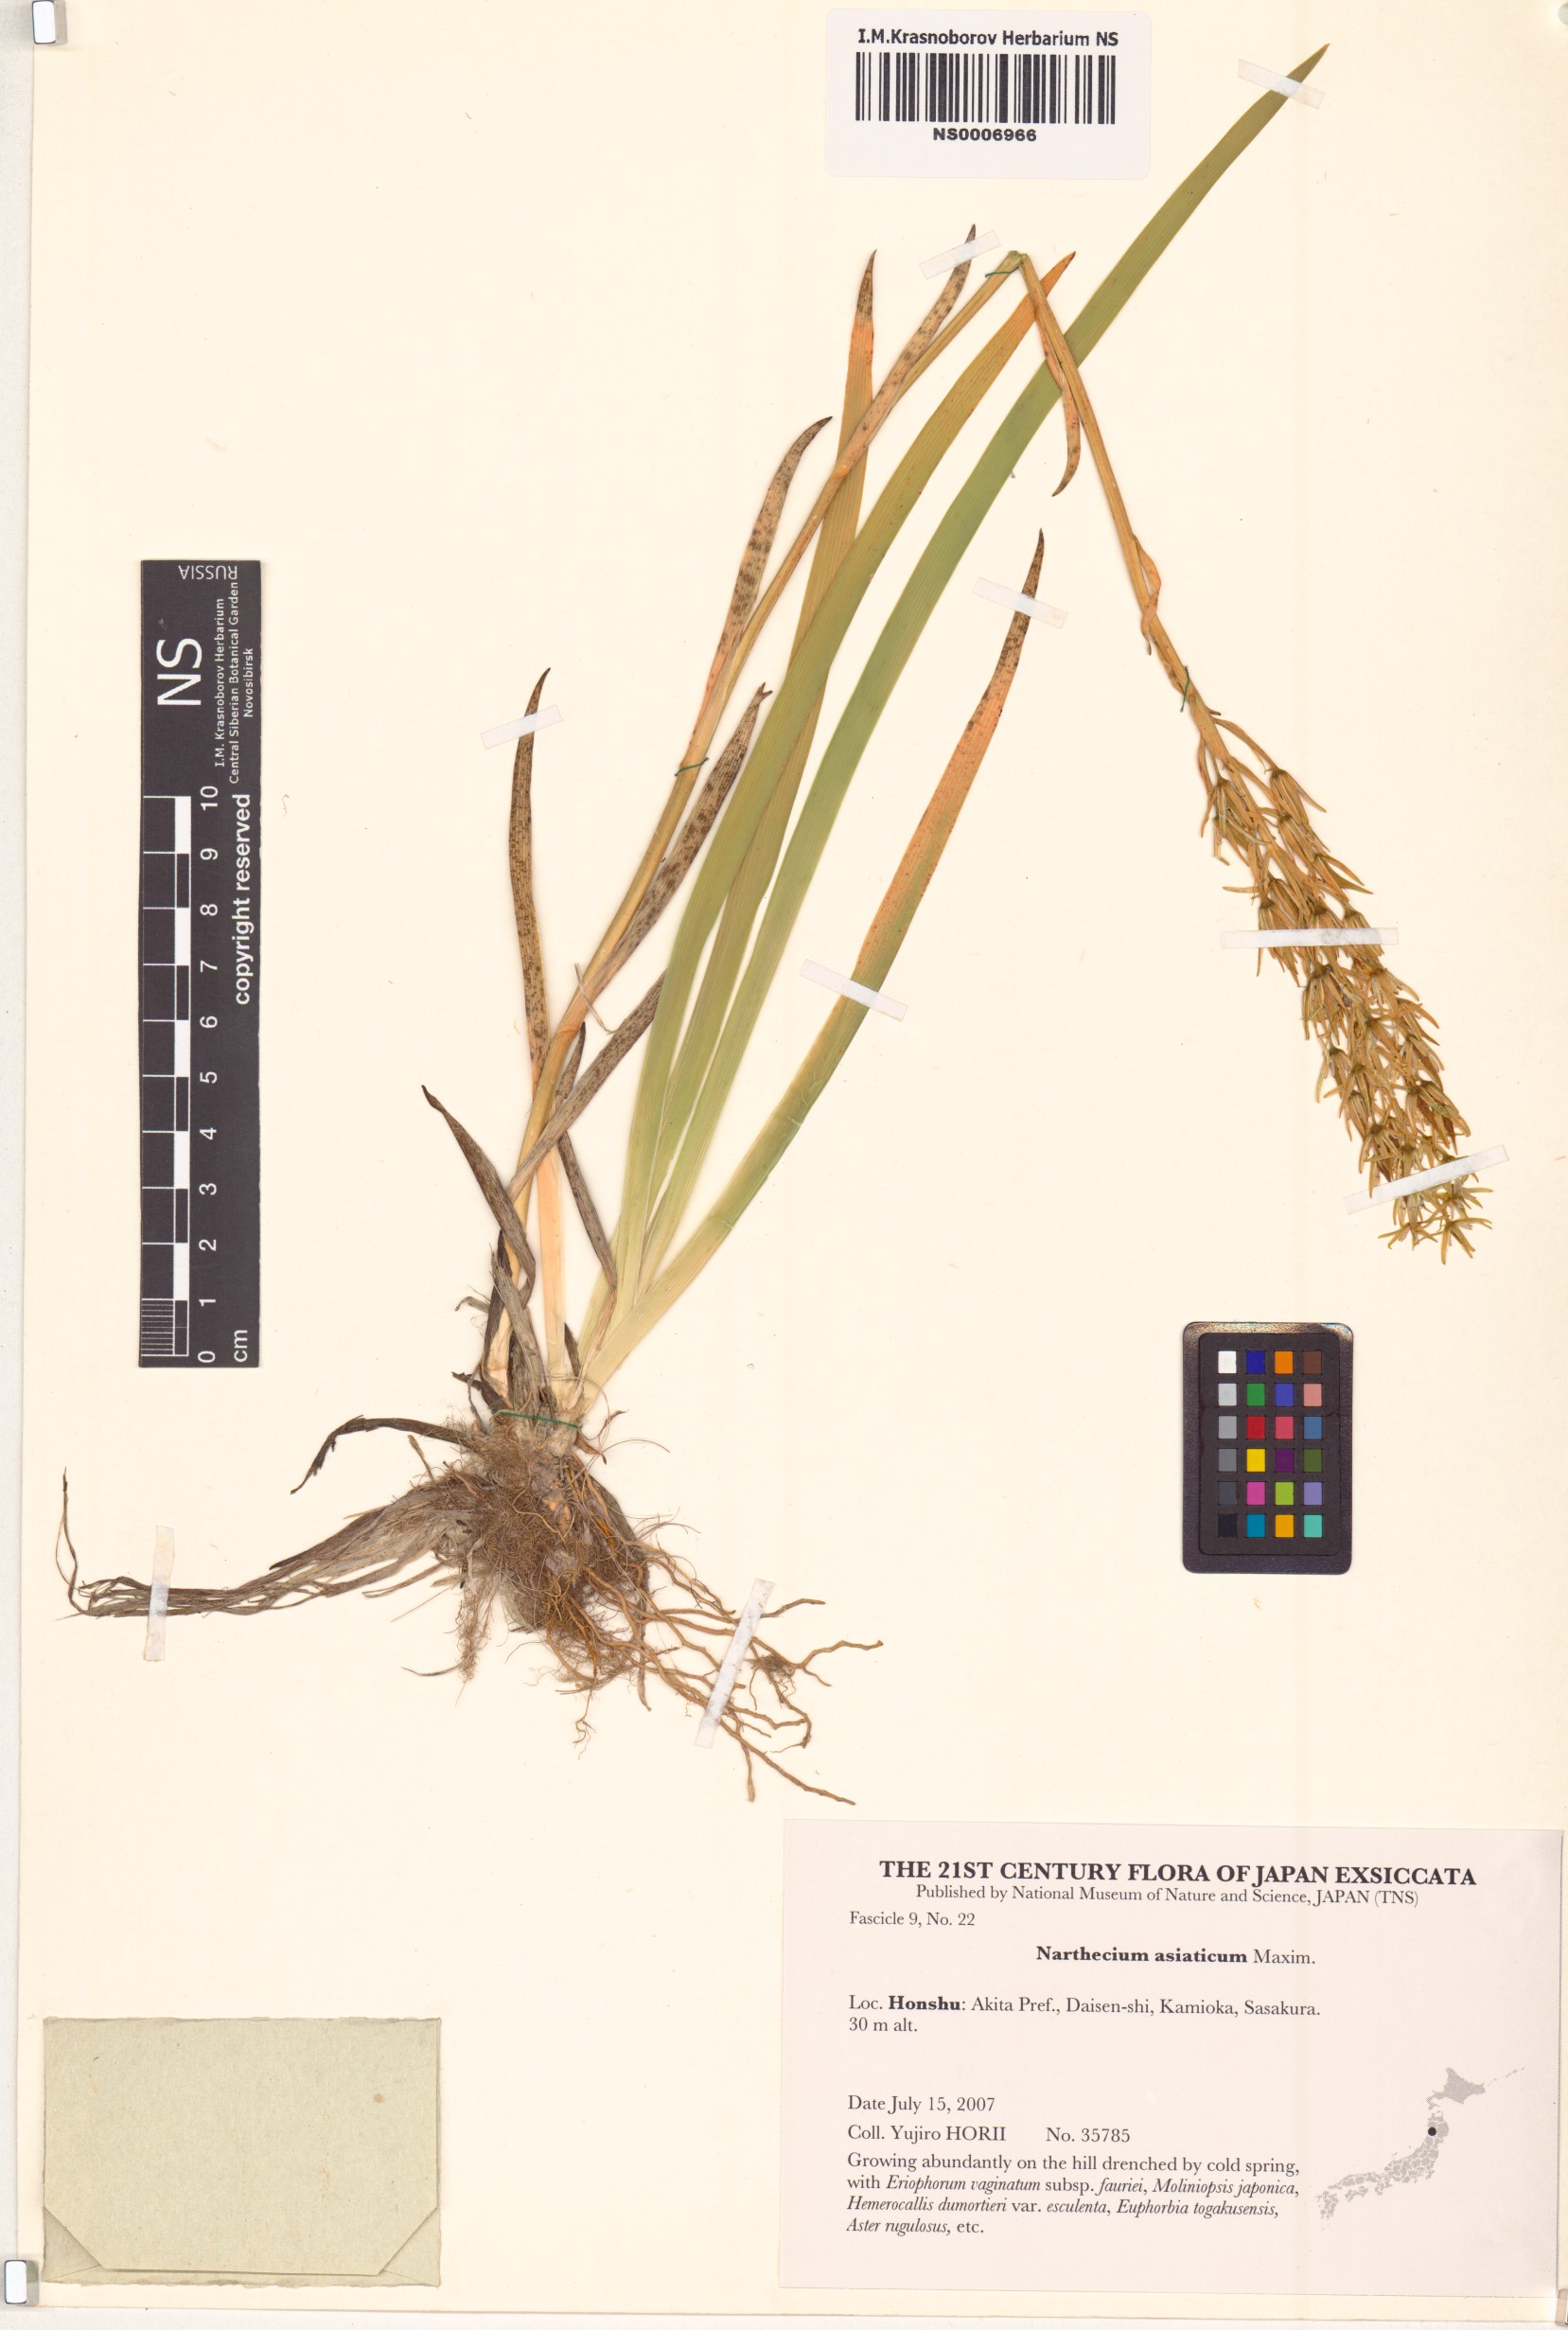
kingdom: Plantae
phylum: Tracheophyta
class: Liliopsida
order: Dioscoreales
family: Nartheciaceae
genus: Narthecium
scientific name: Narthecium asiaticum
